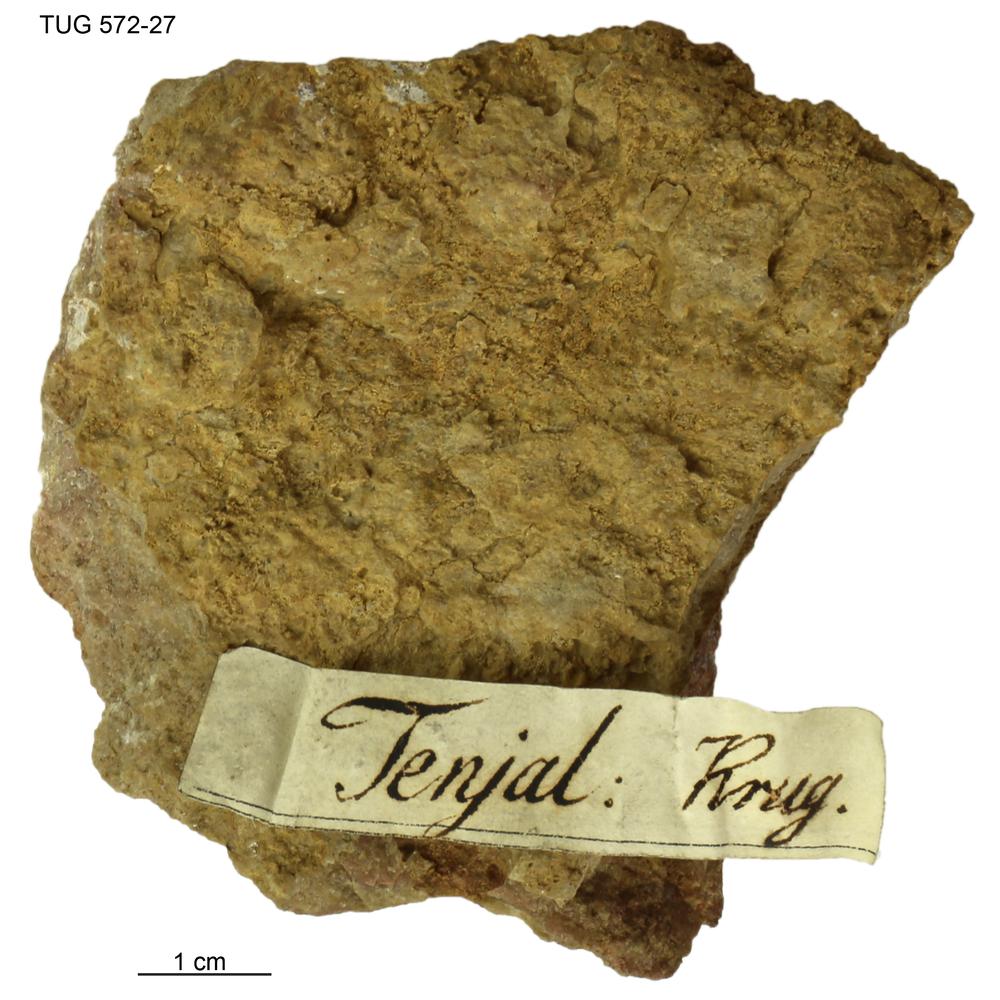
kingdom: Animalia
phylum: Mollusca
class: Cephalopoda
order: Orthocerida
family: Orthoceratidae
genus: Orthoceras
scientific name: Orthoceras
